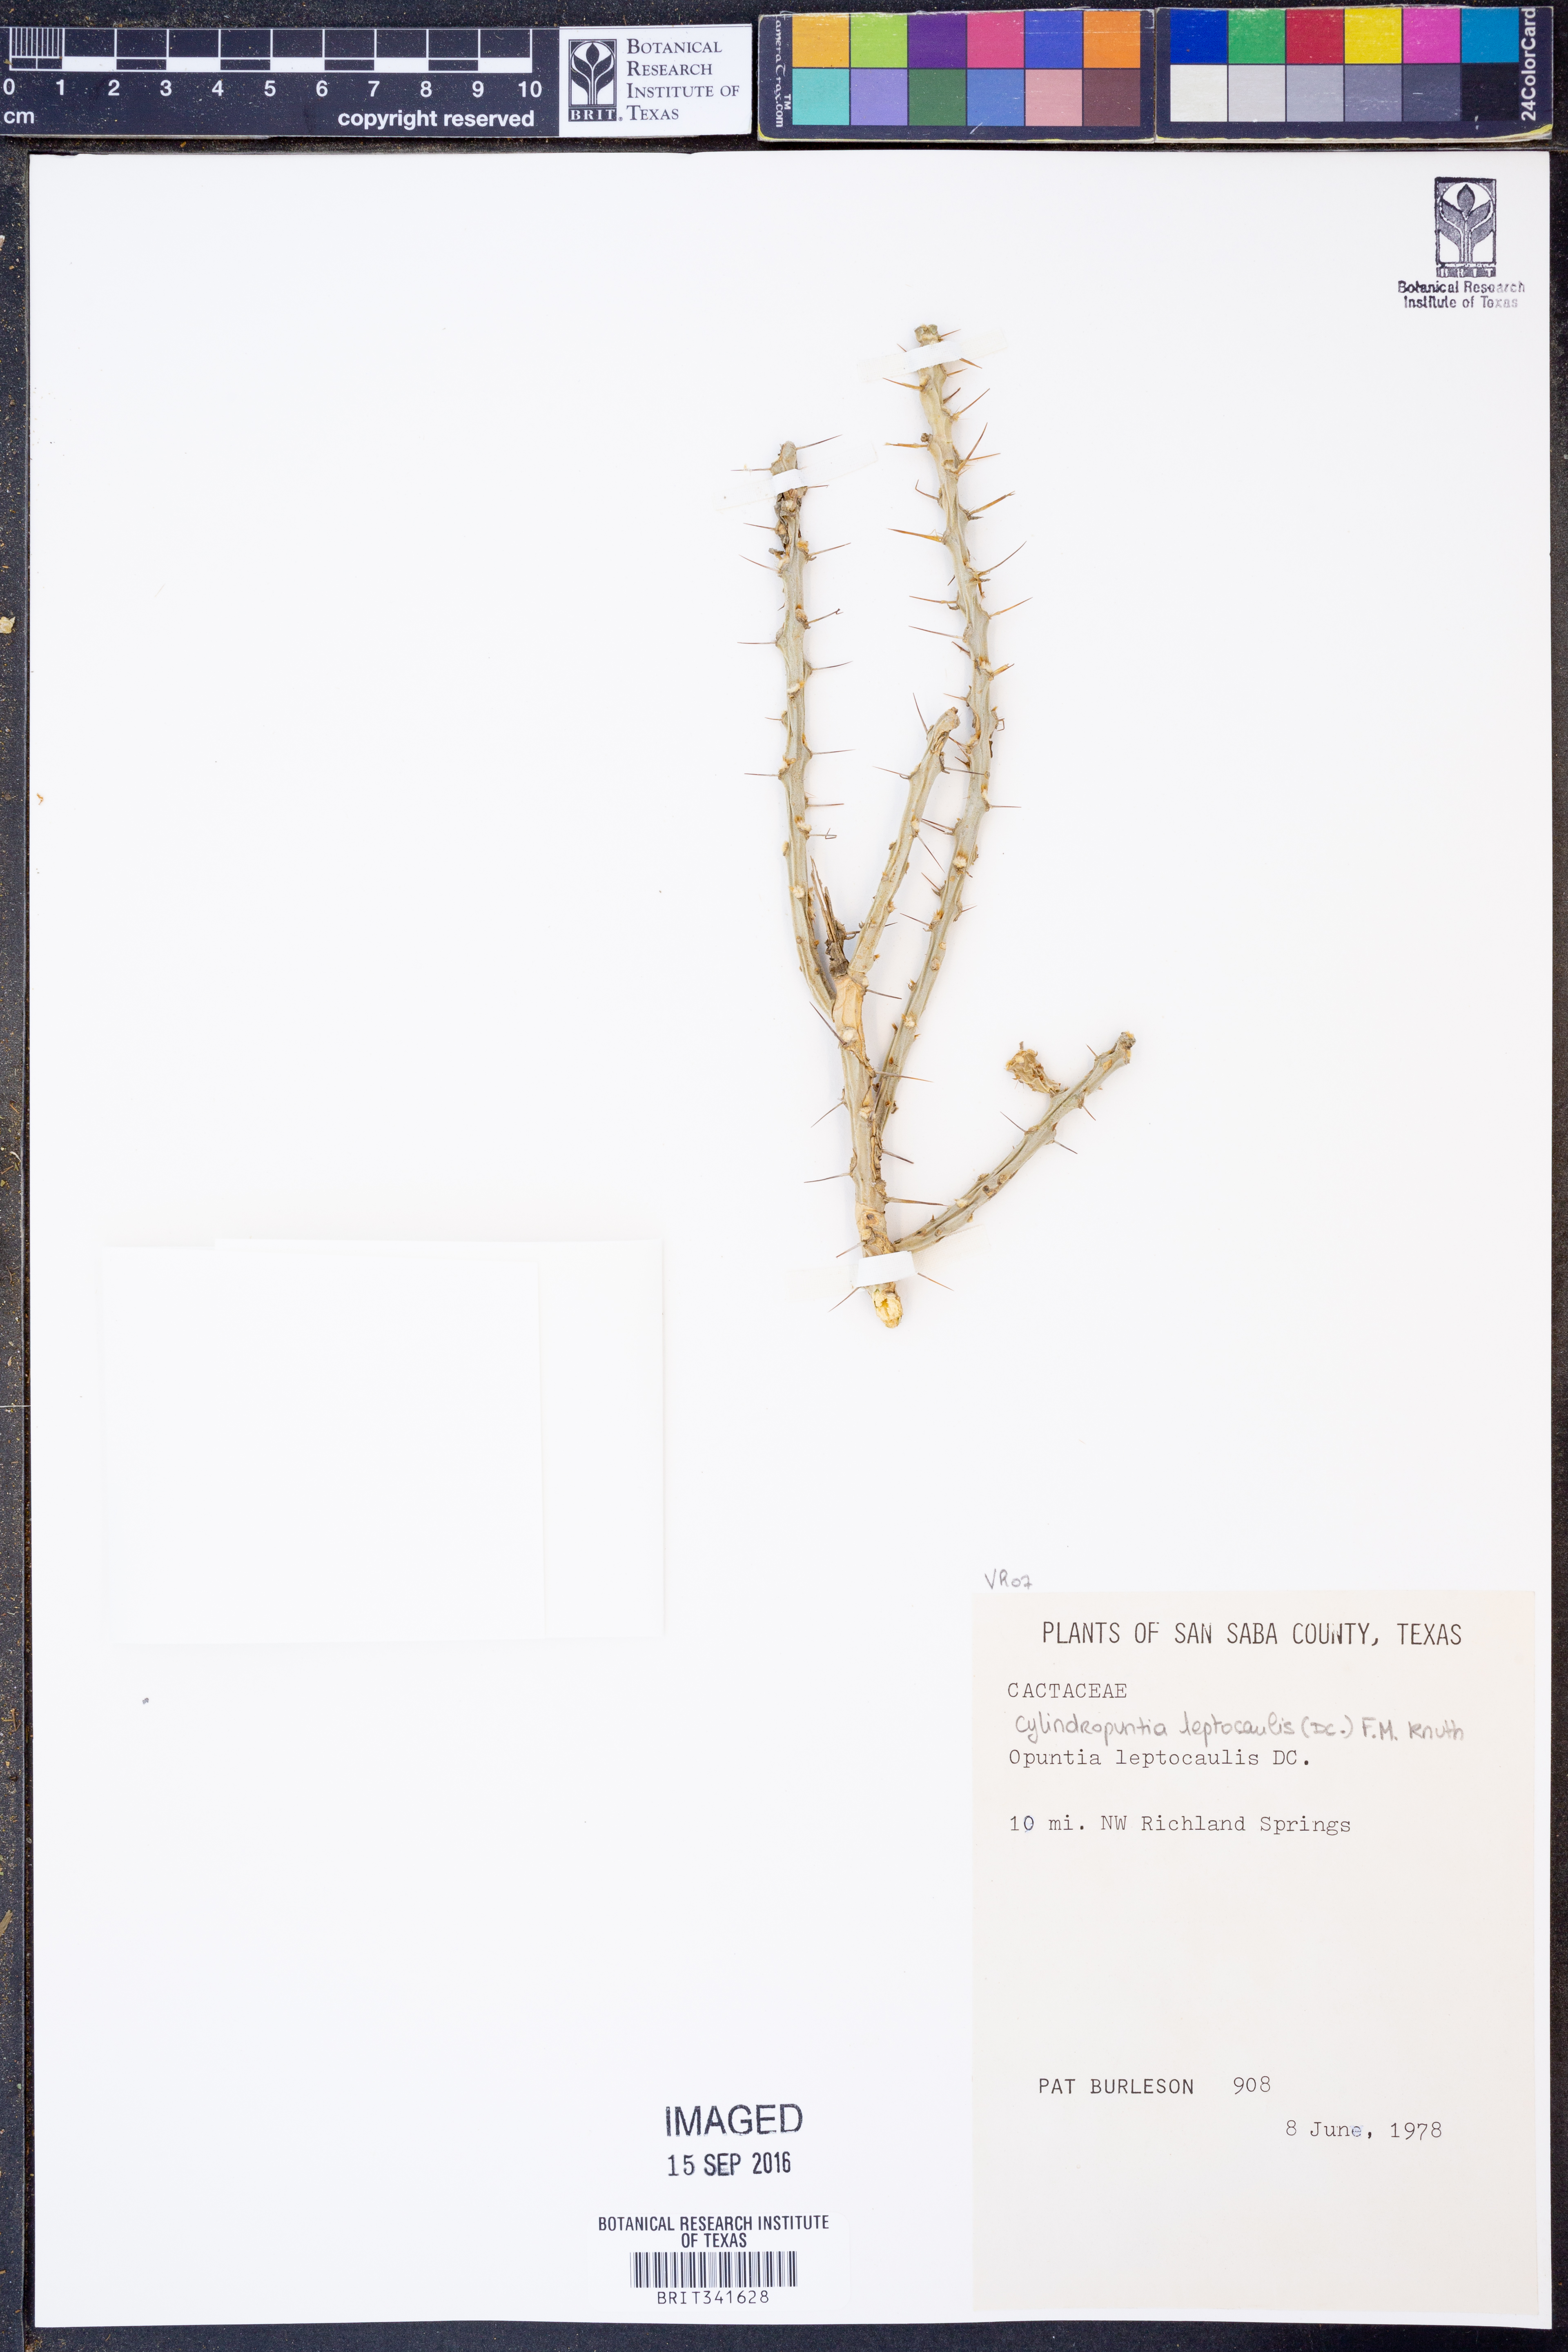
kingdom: Plantae
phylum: Tracheophyta
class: Magnoliopsida
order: Caryophyllales
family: Cactaceae
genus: Cylindropuntia
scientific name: Cylindropuntia leptocaulis
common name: Christmas cactus
